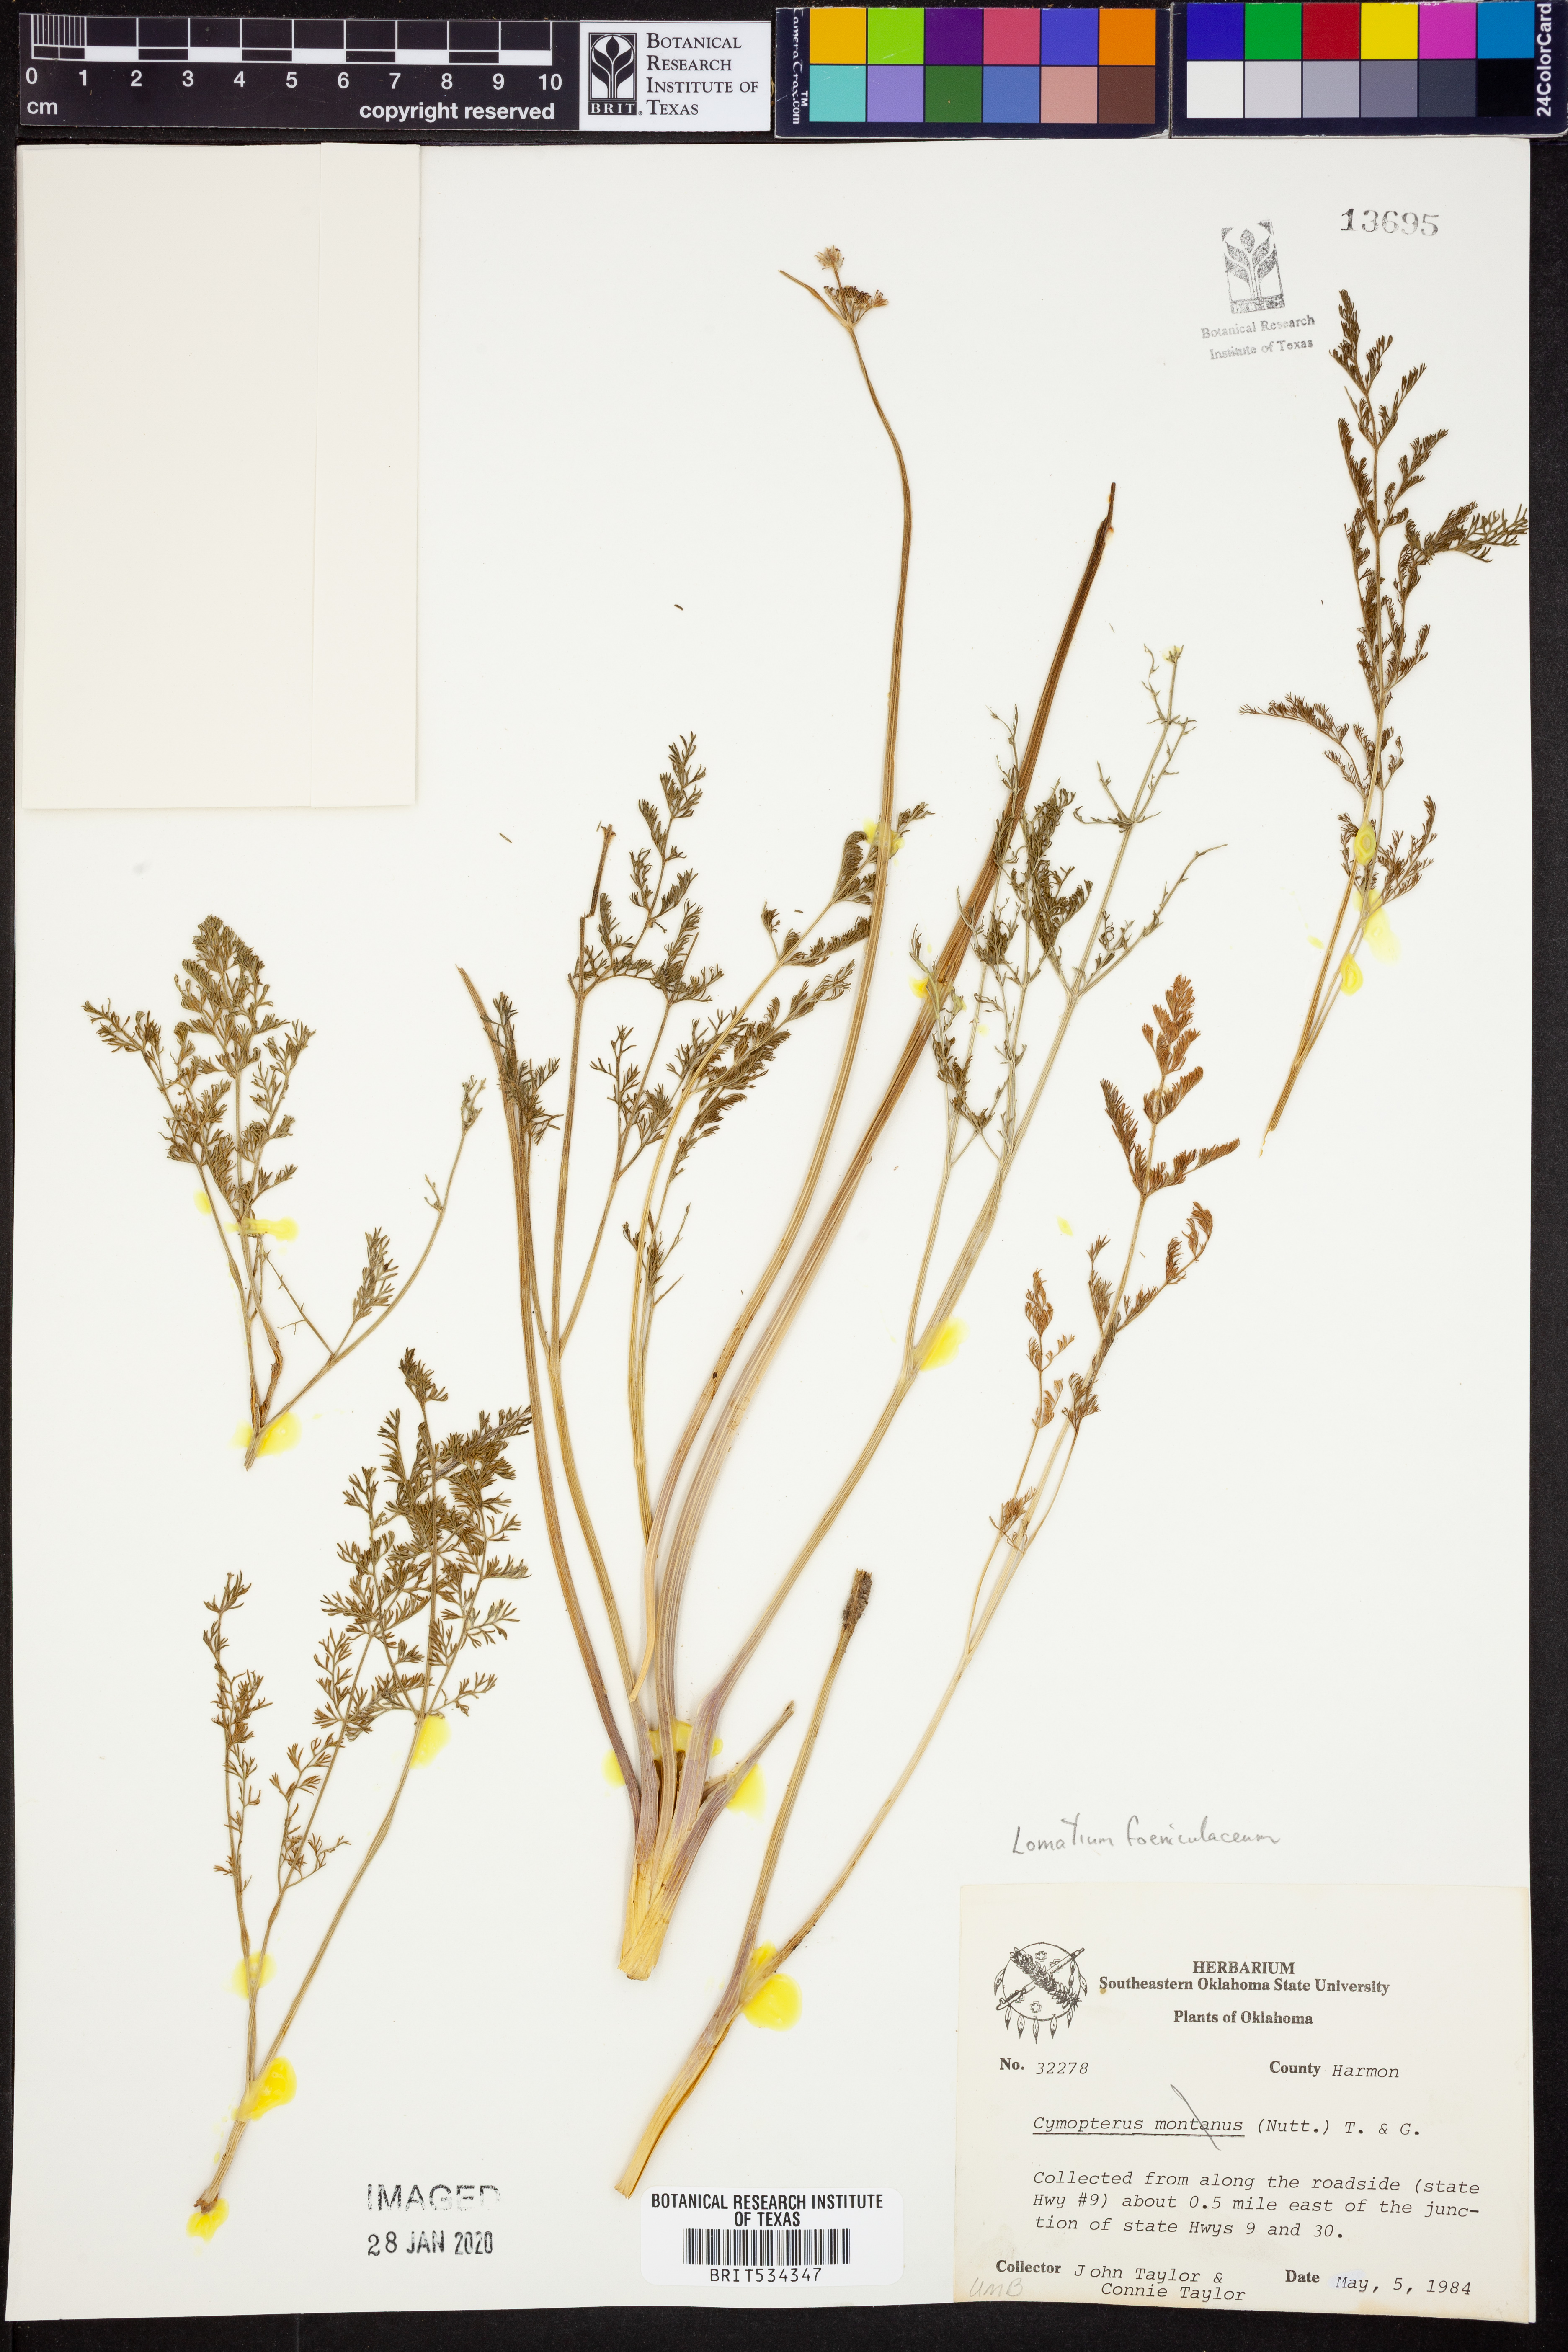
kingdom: Plantae
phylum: Tracheophyta
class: Magnoliopsida
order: Apiales
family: Apiaceae
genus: Lomatium
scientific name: Lomatium foeniculaceum
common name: Desert-parsley
